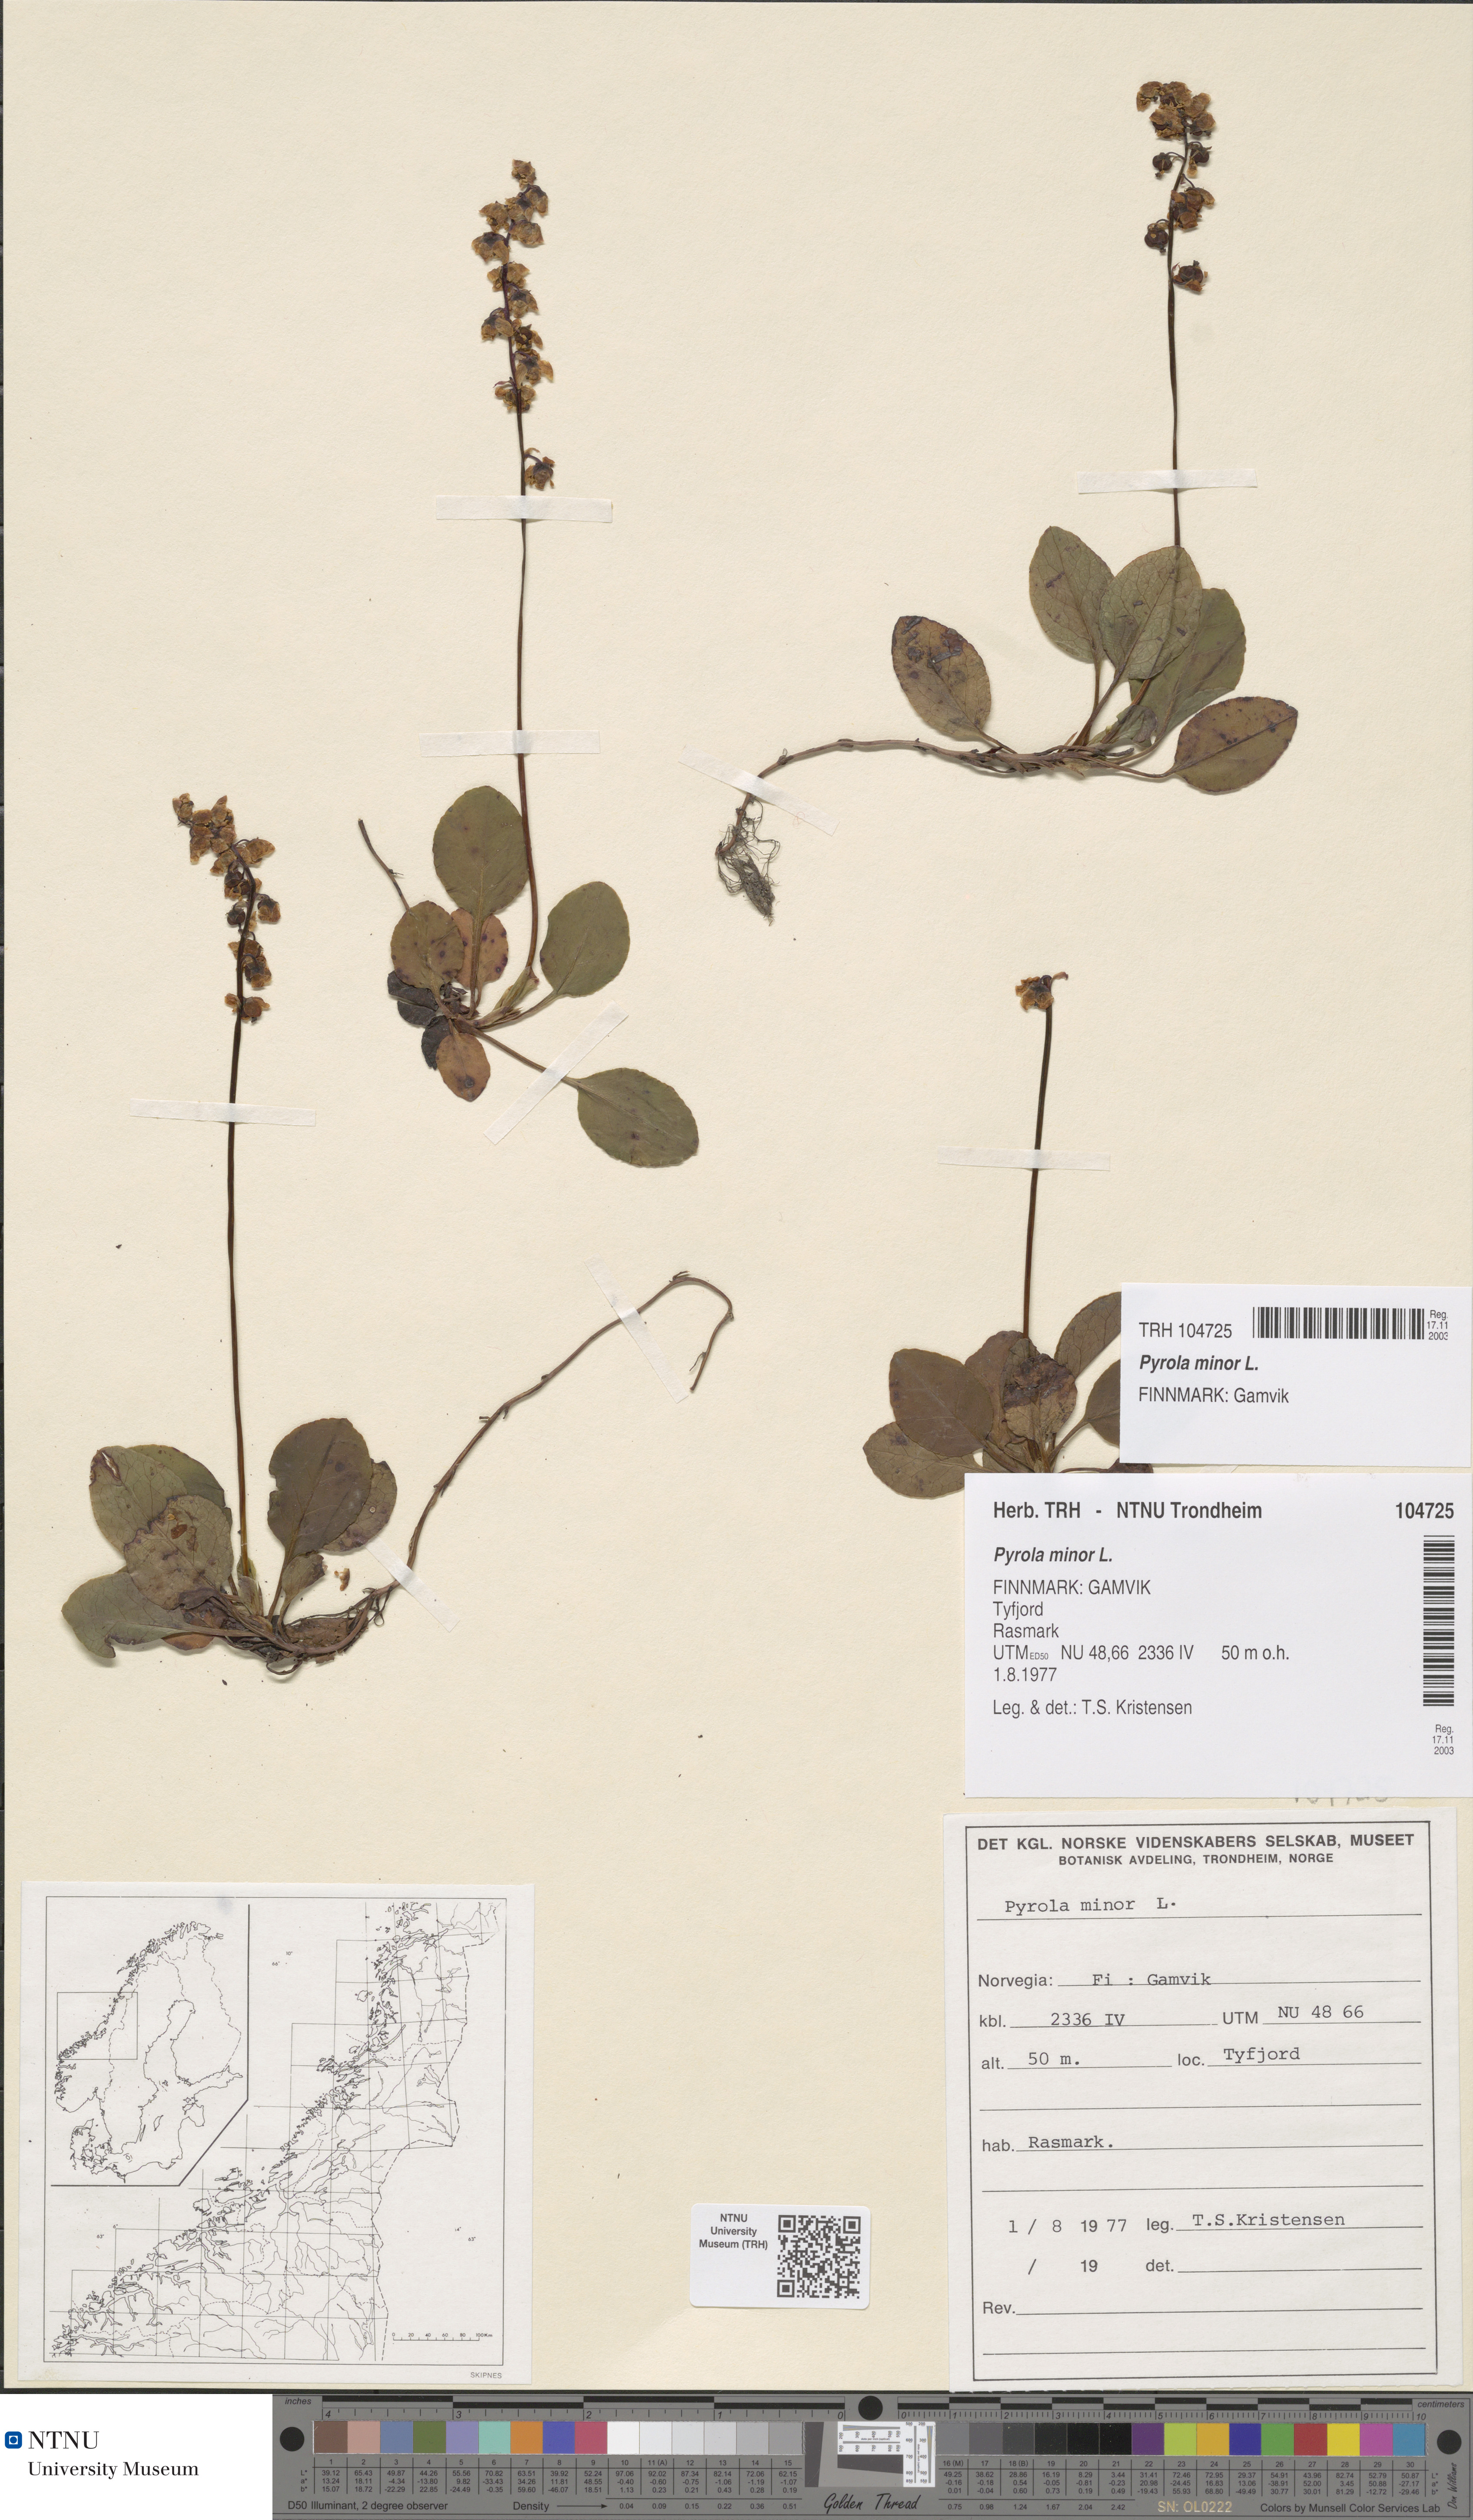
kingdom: Plantae
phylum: Tracheophyta
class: Magnoliopsida
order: Ericales
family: Ericaceae
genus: Pyrola
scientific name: Pyrola minor
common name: Common wintergreen
